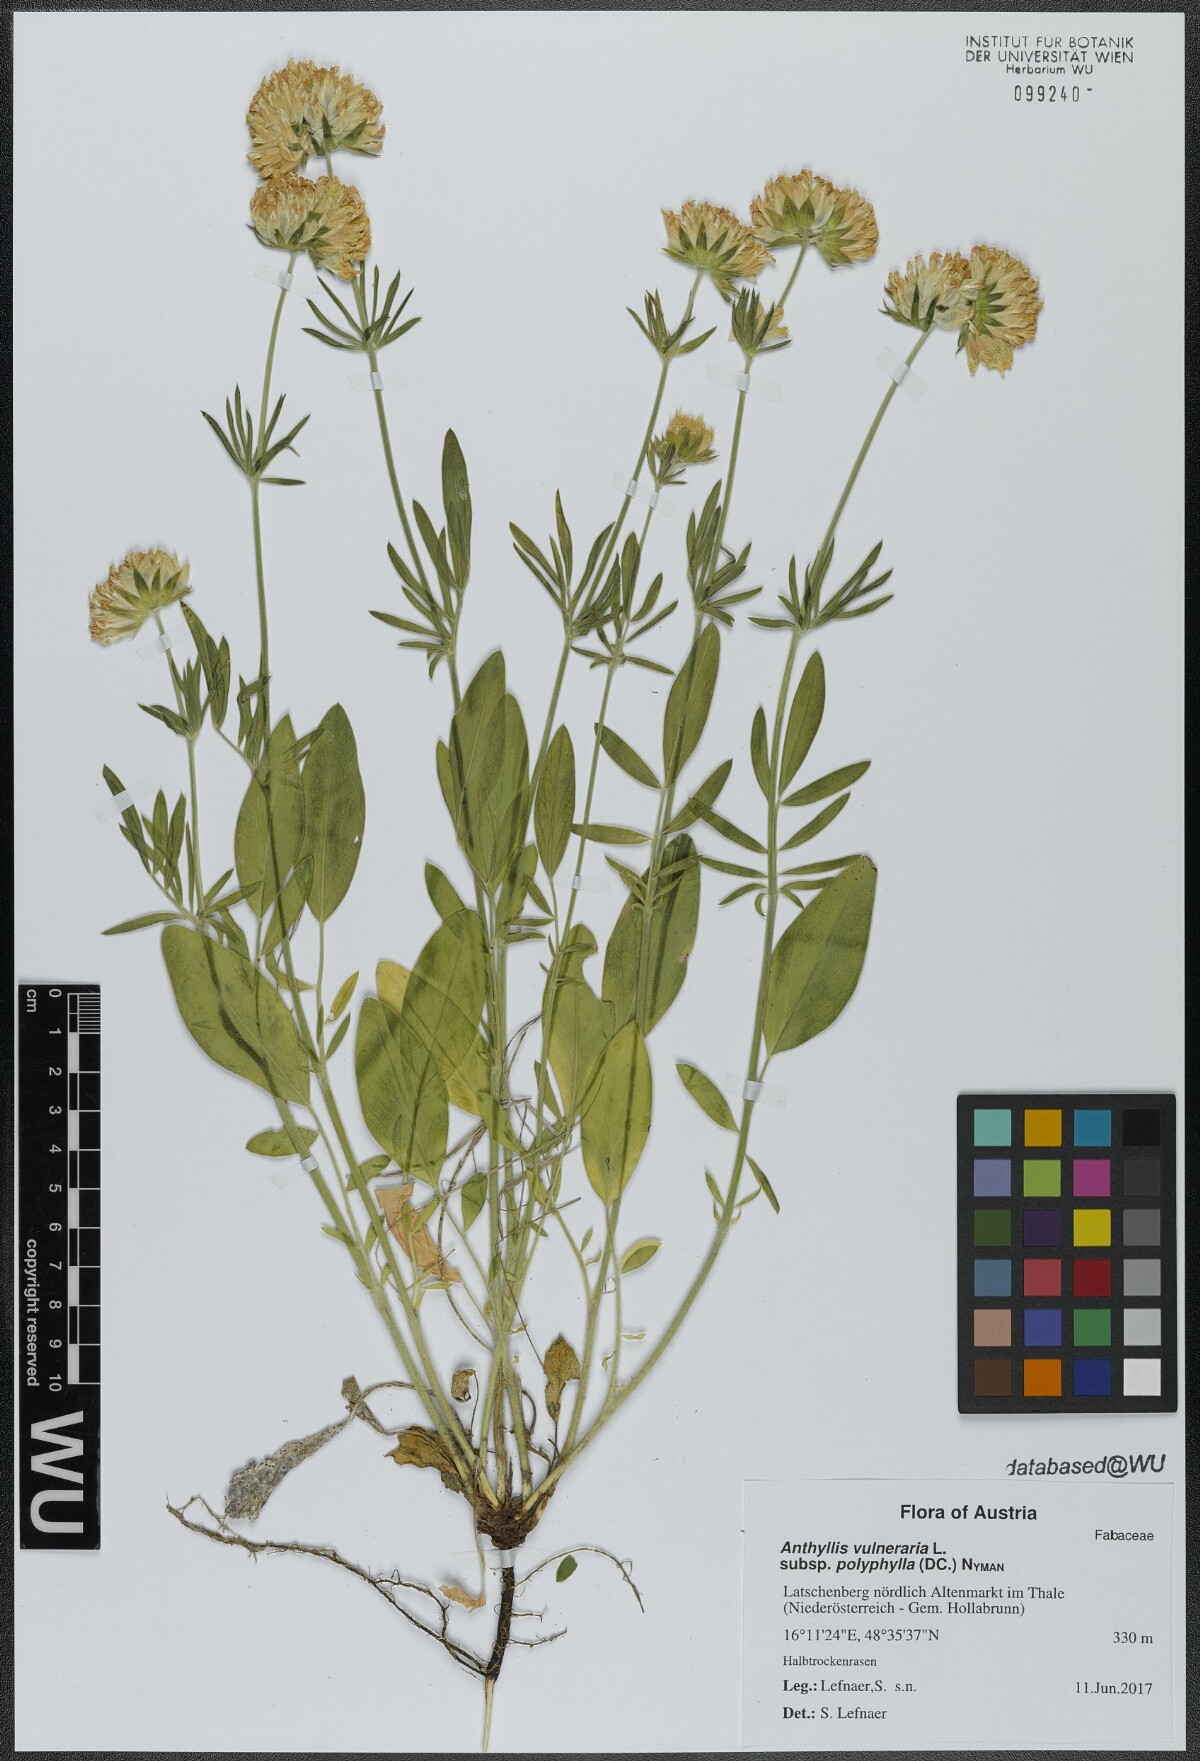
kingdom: Plantae
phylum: Tracheophyta
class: Magnoliopsida
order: Fabales
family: Fabaceae
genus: Anthyllis
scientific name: Anthyllis vulneraria
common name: Kidney vetch
